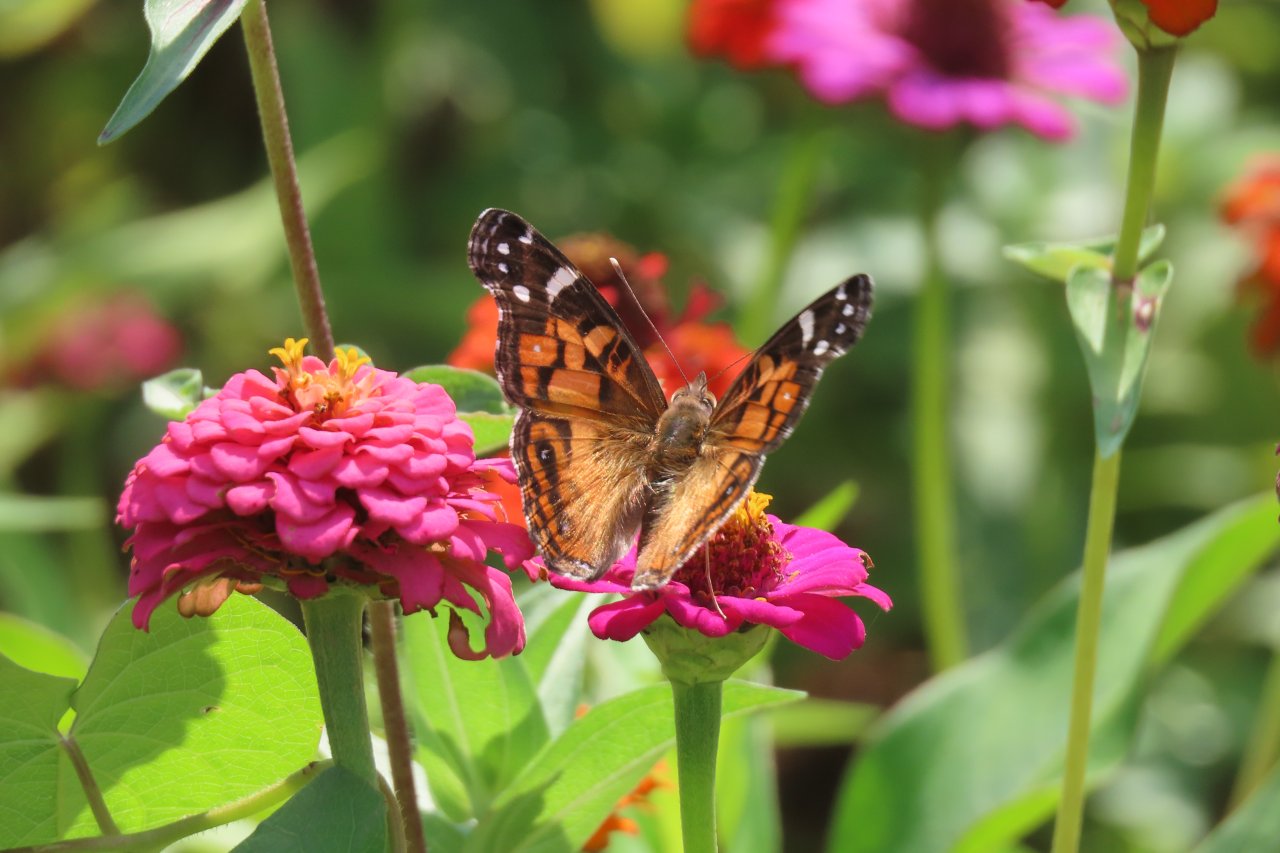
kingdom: Animalia
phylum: Arthropoda
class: Insecta
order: Lepidoptera
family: Nymphalidae
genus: Vanessa
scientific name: Vanessa virginiensis
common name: American Lady
